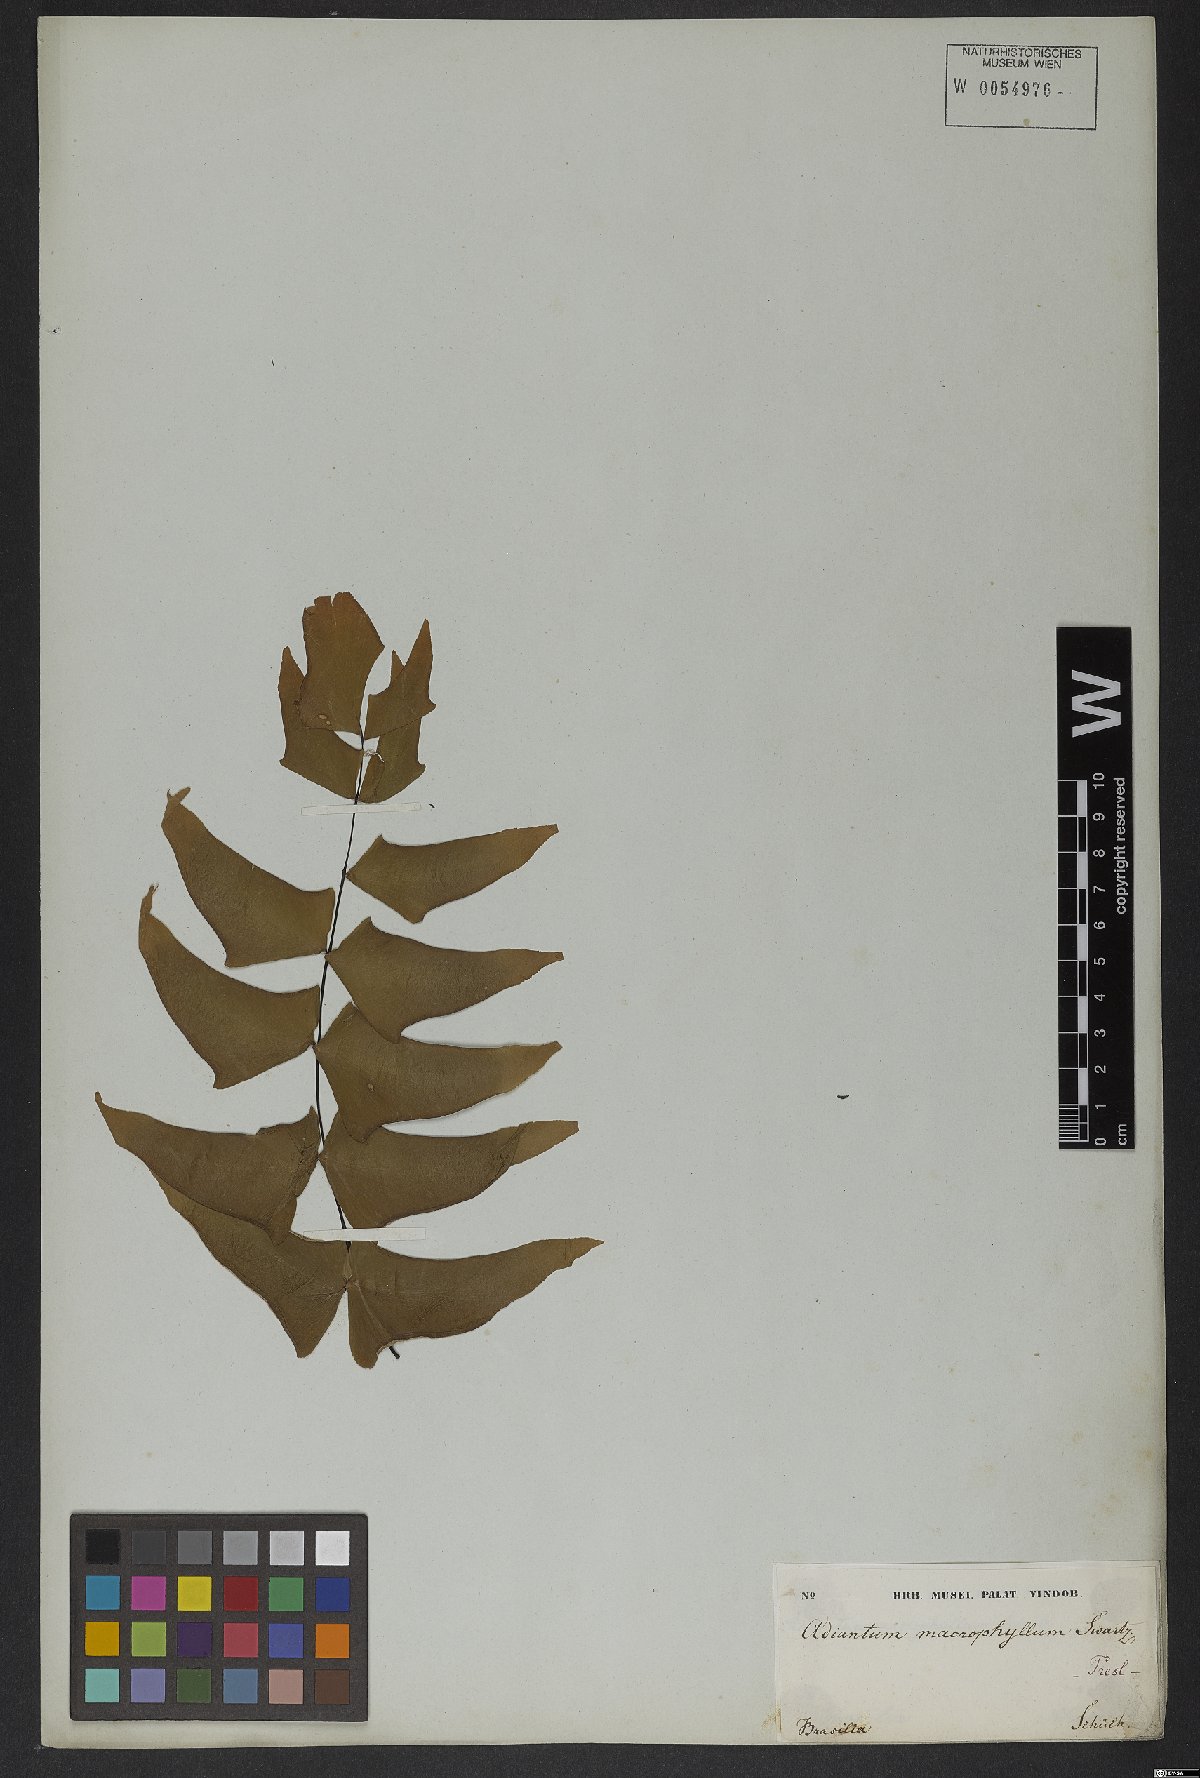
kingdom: Plantae
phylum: Tracheophyta
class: Polypodiopsida
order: Polypodiales
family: Pteridaceae
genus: Adiantum
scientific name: Adiantum macrophyllum
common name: Largeleaf maidenhair
